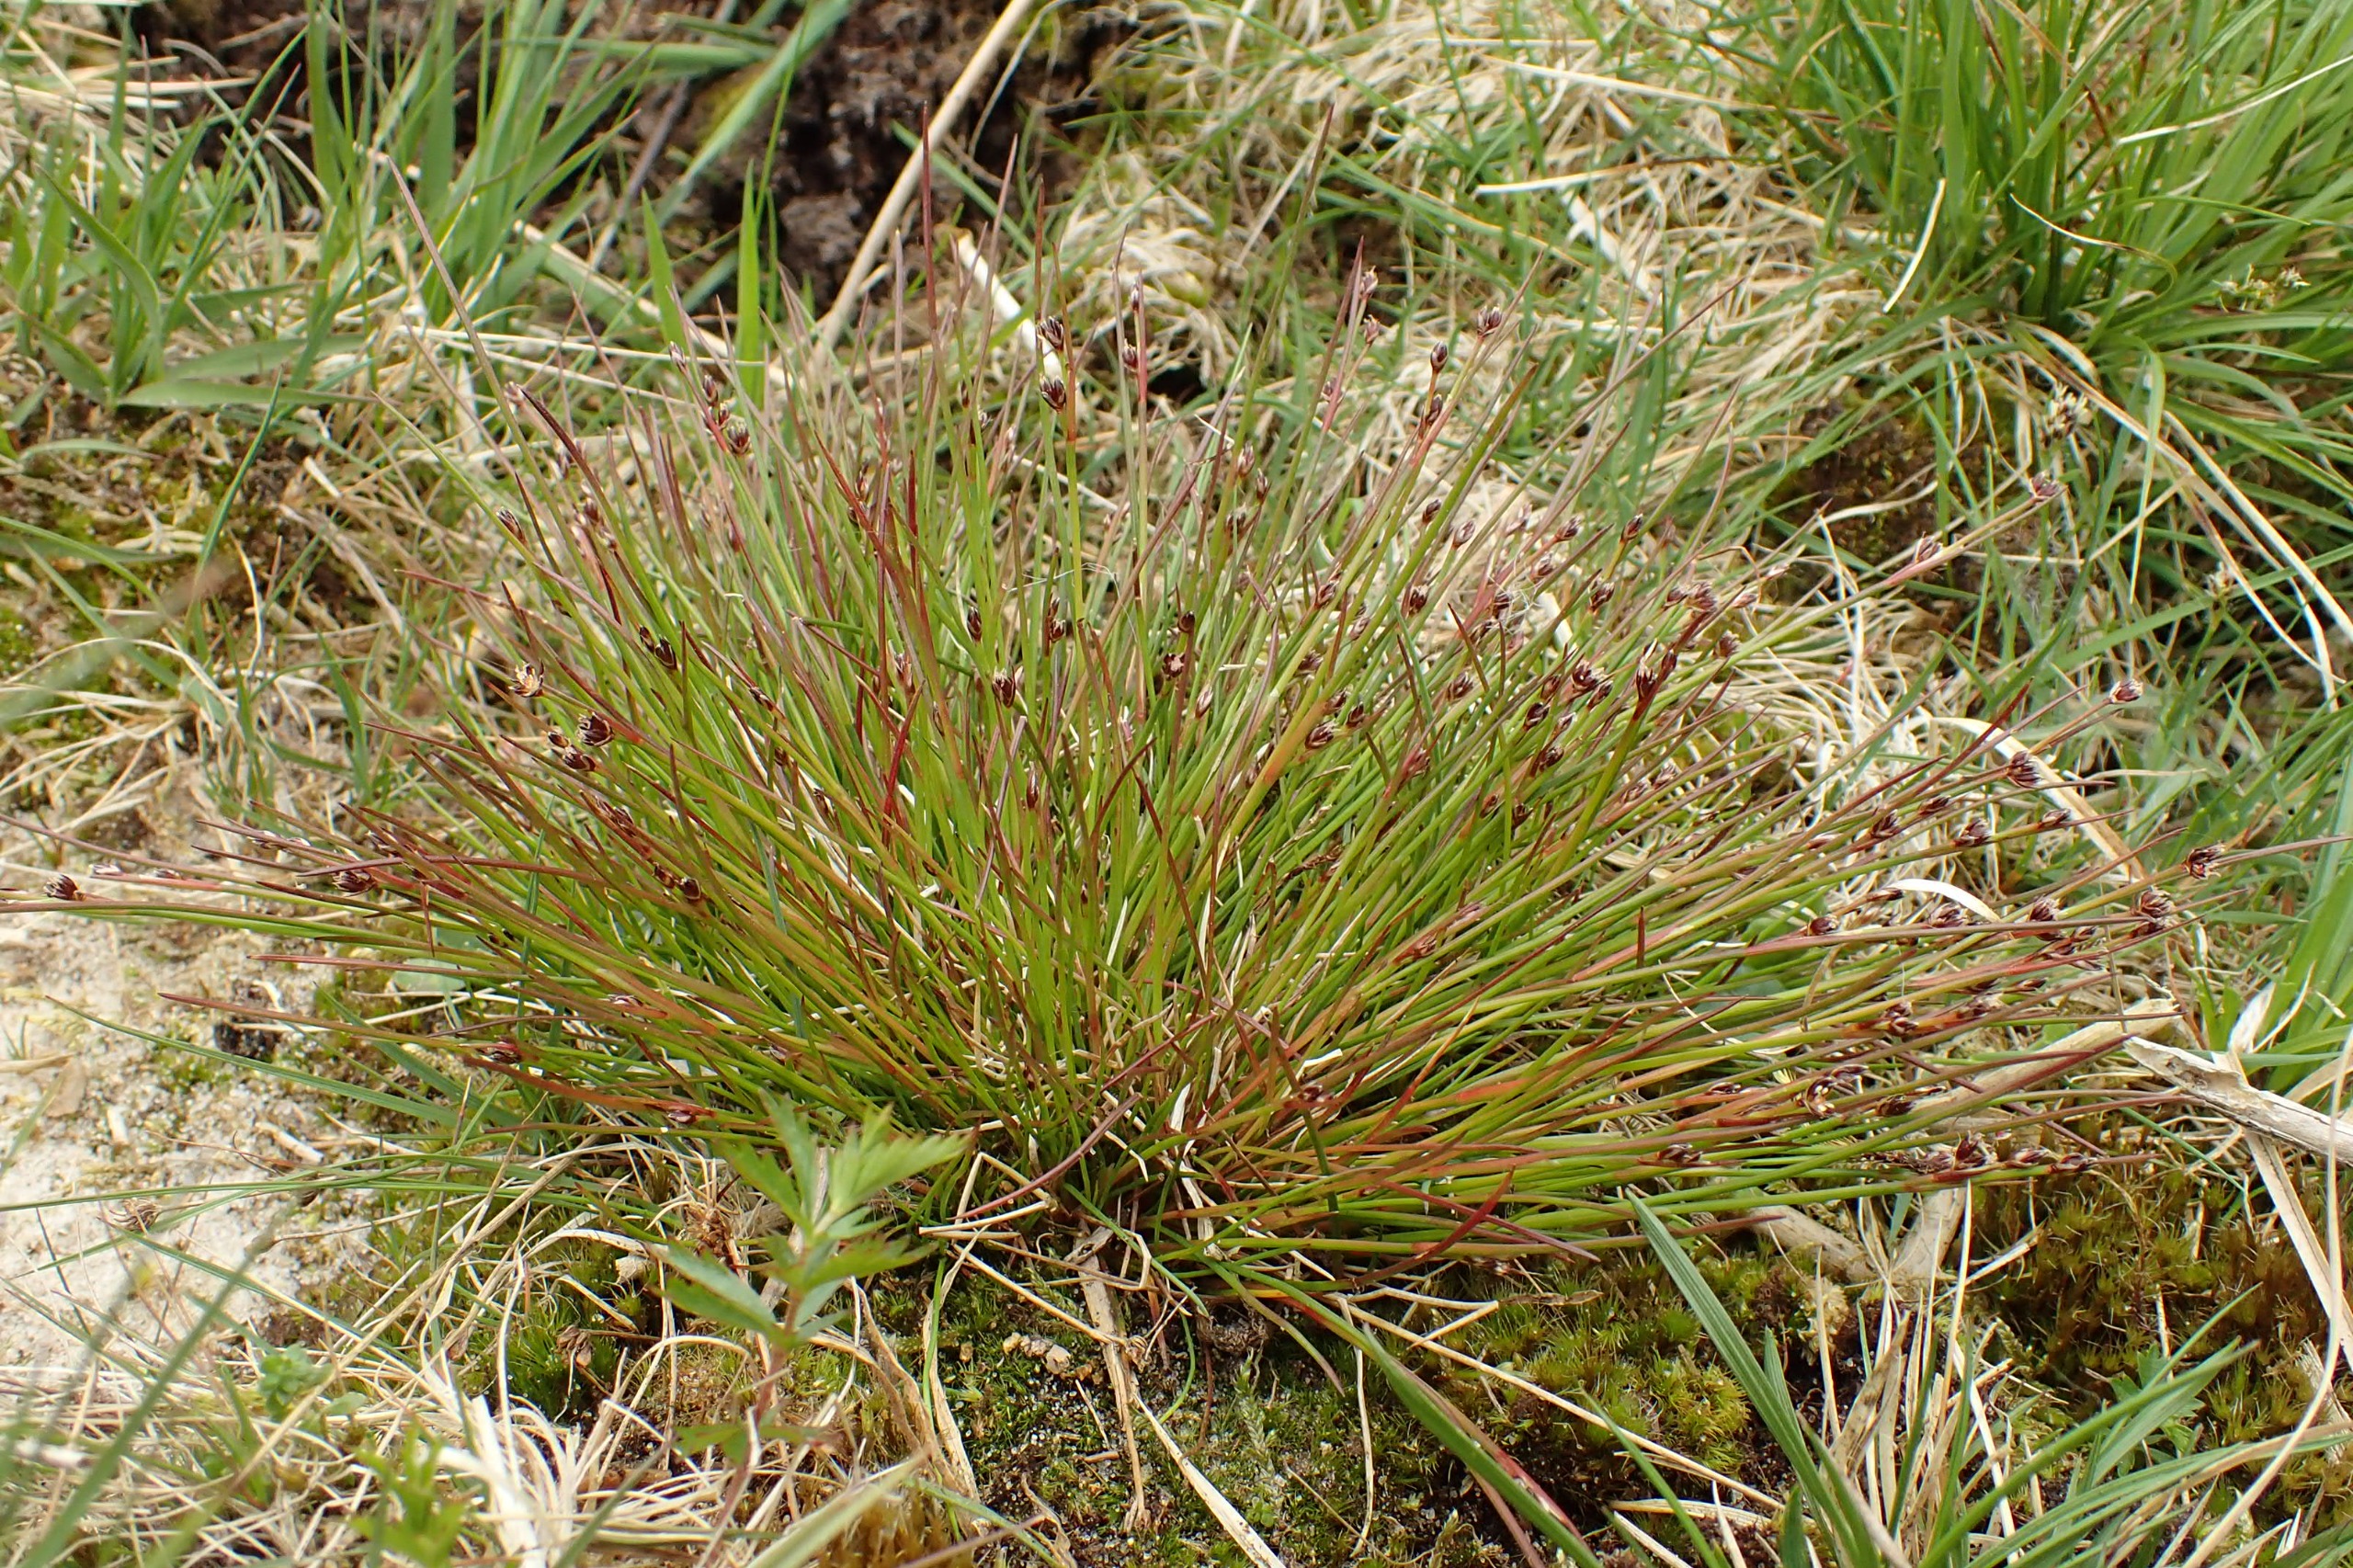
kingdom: Plantae
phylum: Tracheophyta
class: Liliopsida
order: Poales
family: Juncaceae
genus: Juncus
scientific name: Juncus bulbosus
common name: Liden siv
